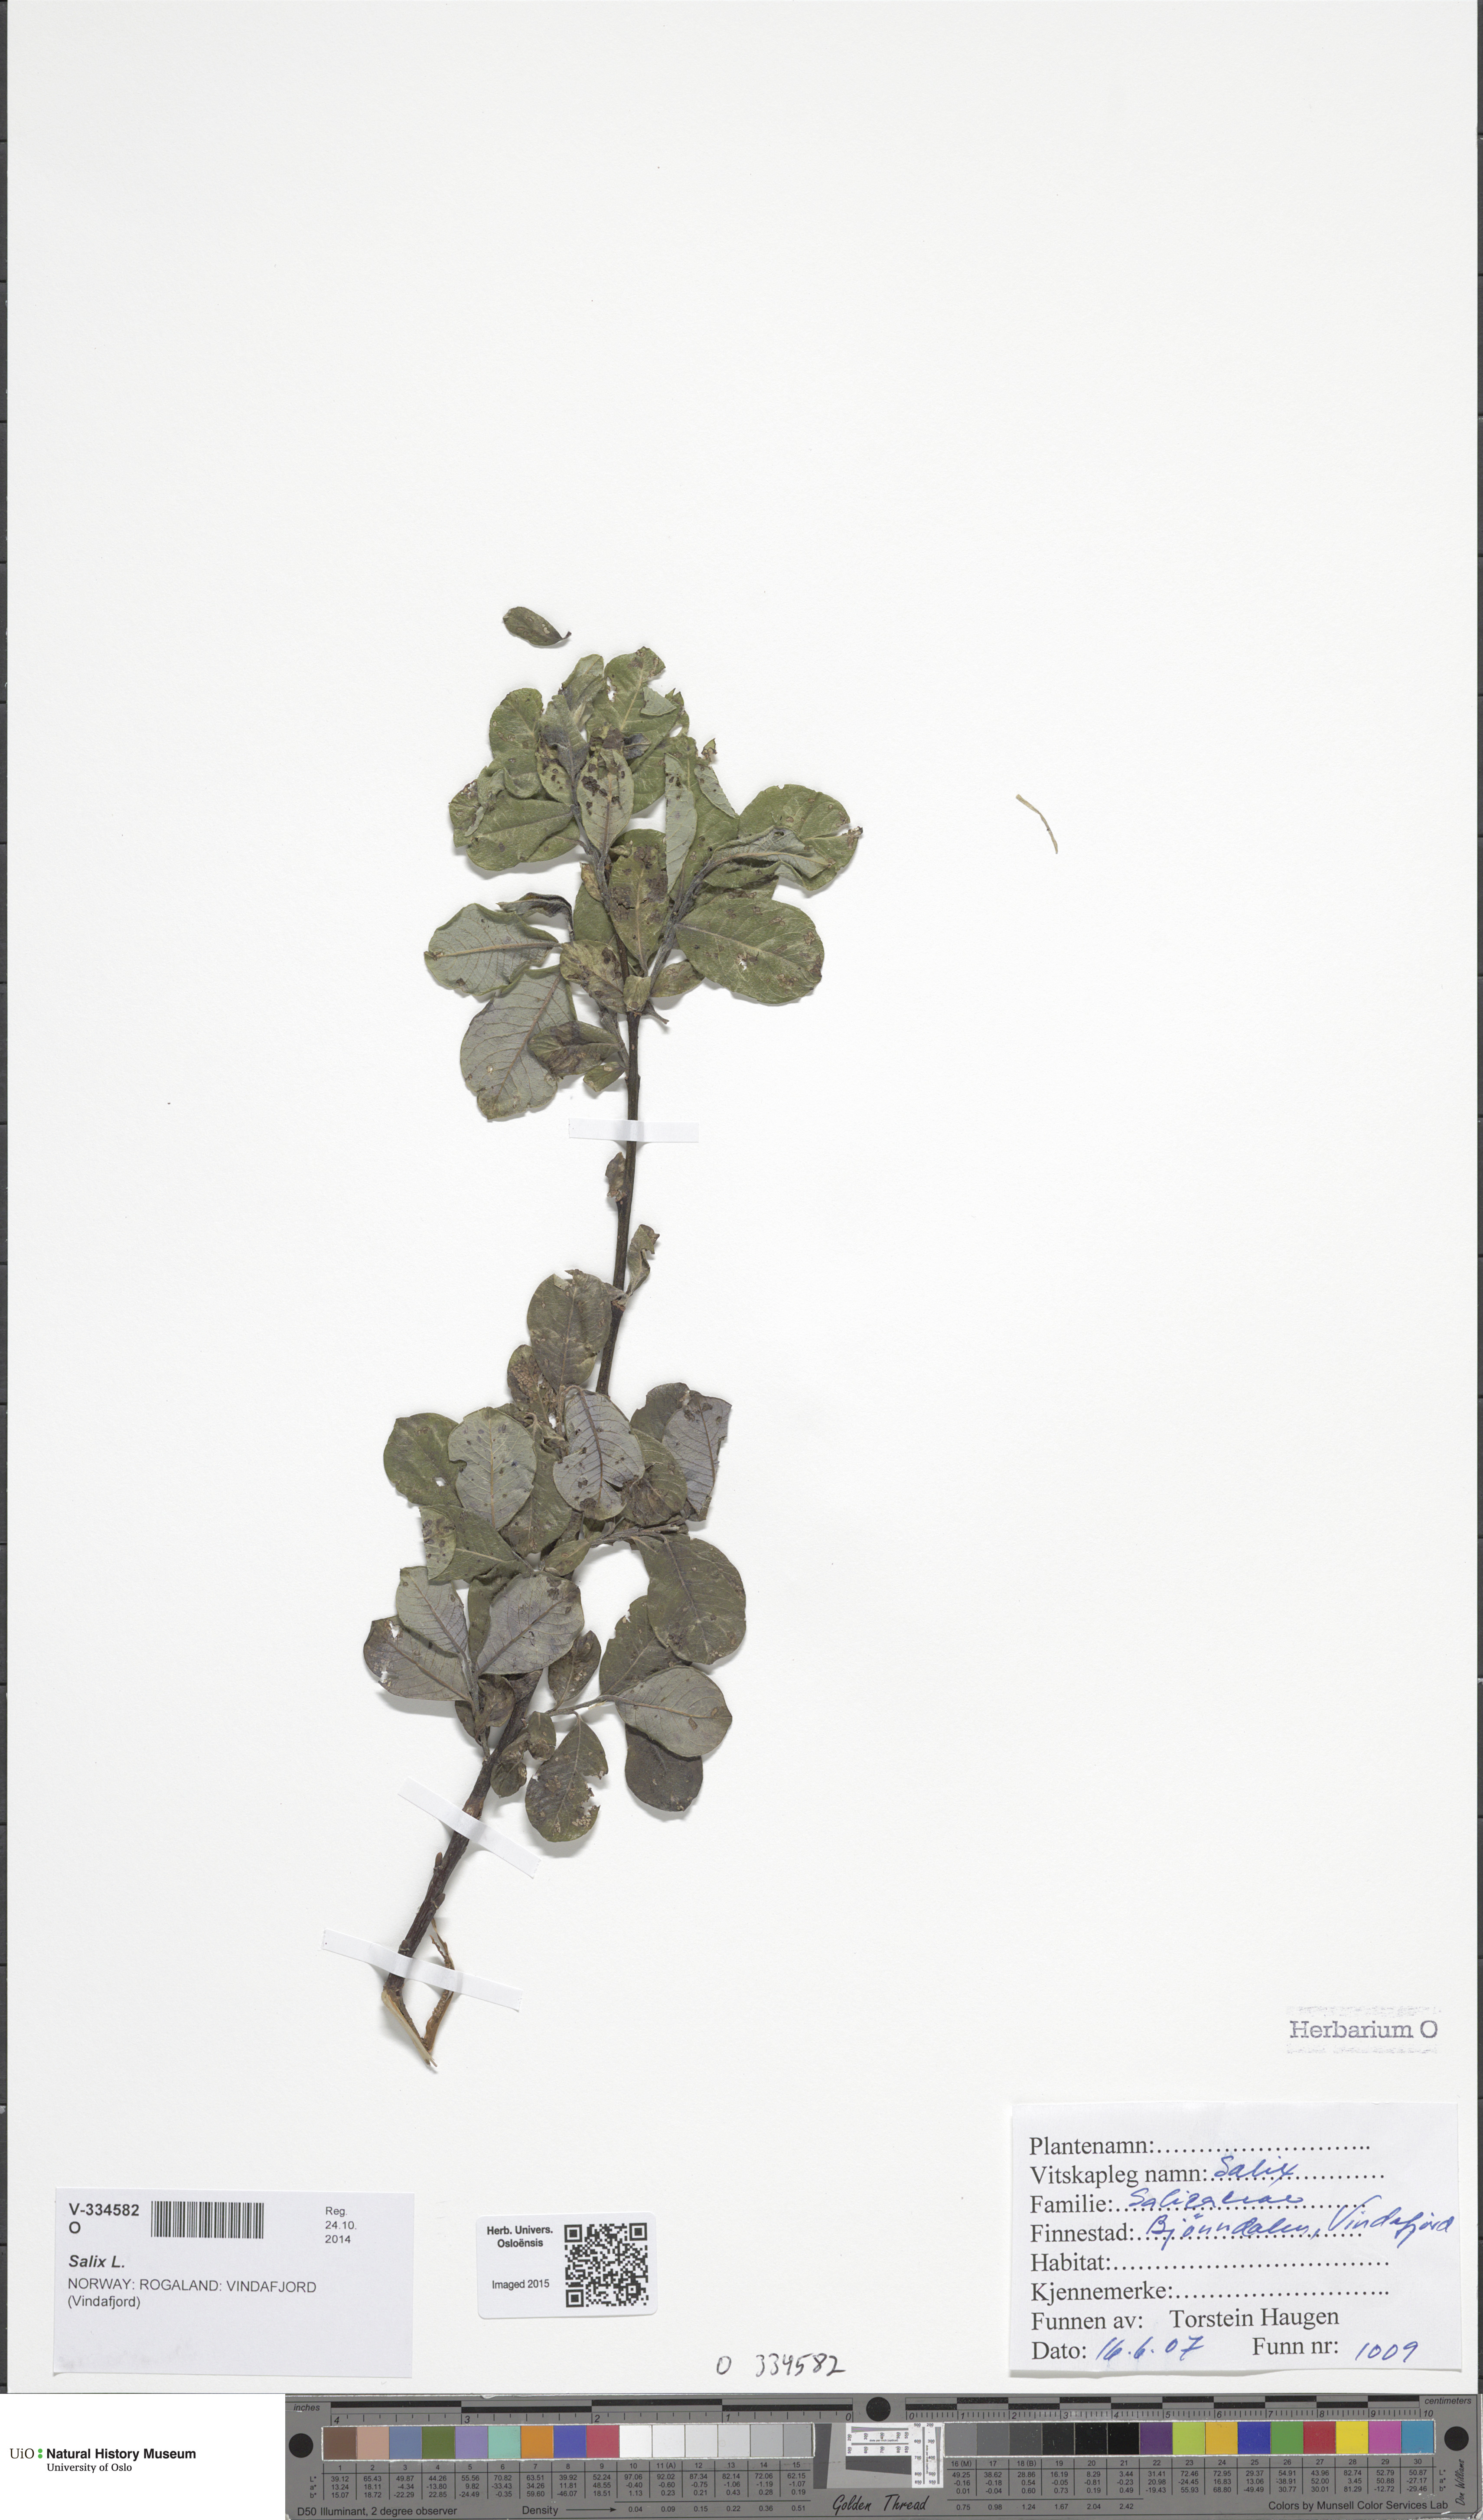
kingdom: Plantae
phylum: Tracheophyta
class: Magnoliopsida
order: Malpighiales
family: Salicaceae
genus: Salix
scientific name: Salix
